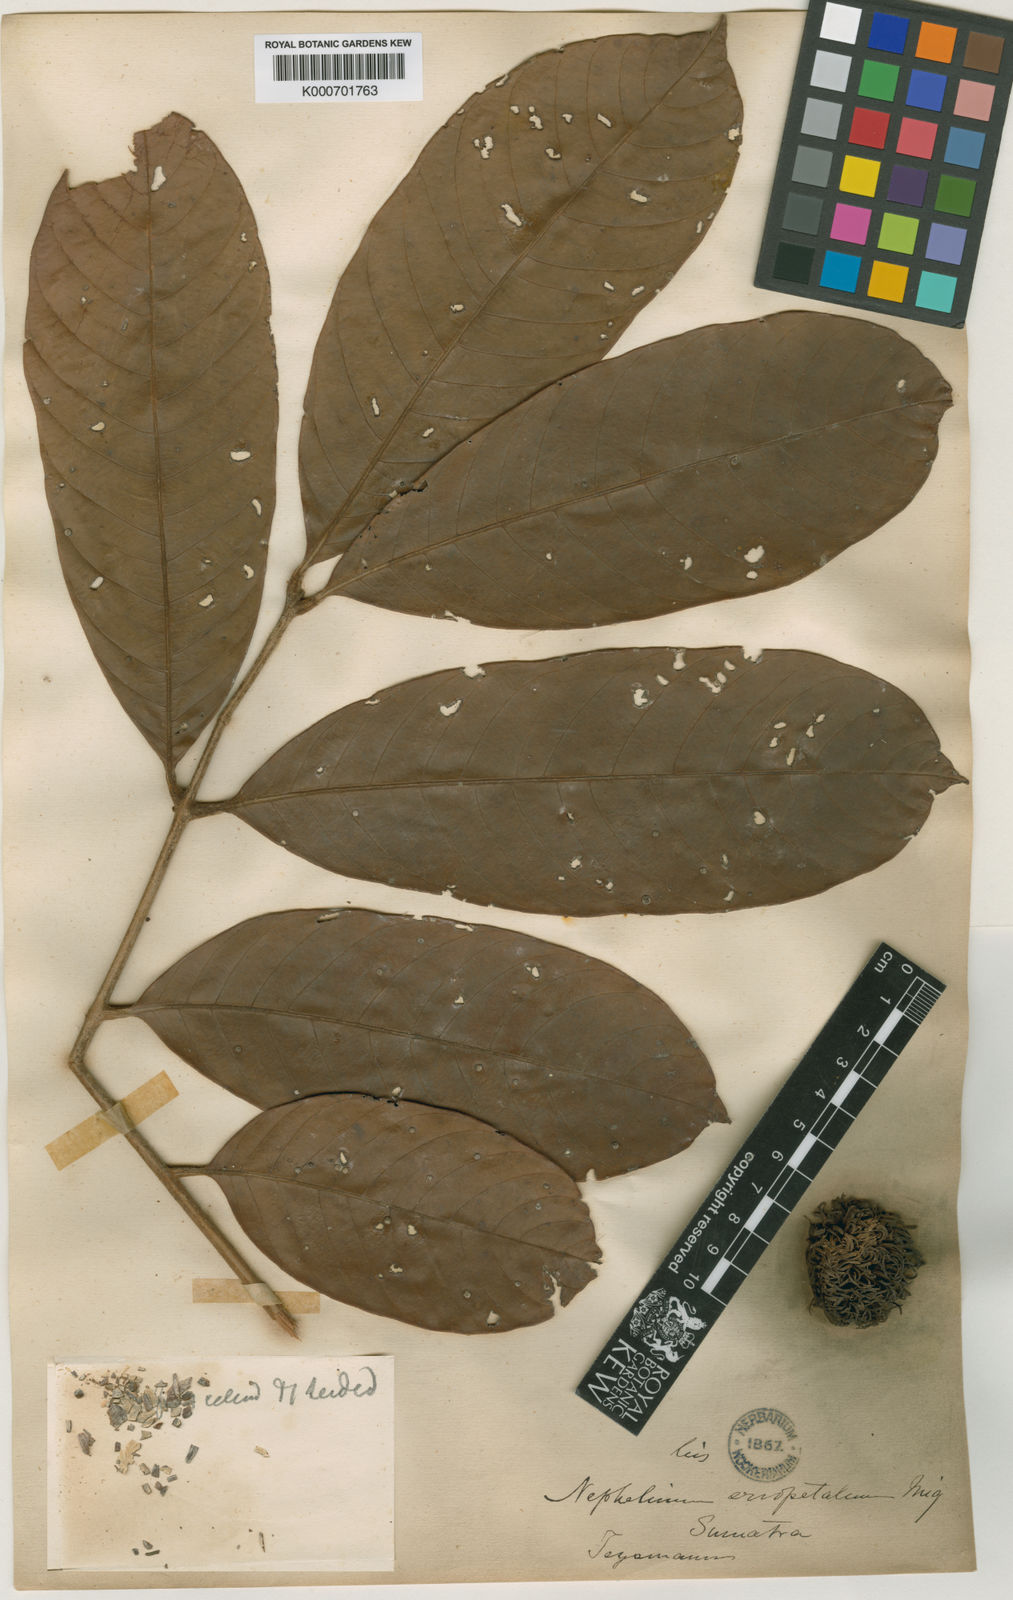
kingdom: Plantae
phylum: Tracheophyta
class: Magnoliopsida
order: Sapindales
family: Sapindaceae
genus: Nephelium
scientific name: Nephelium cuspidatum
